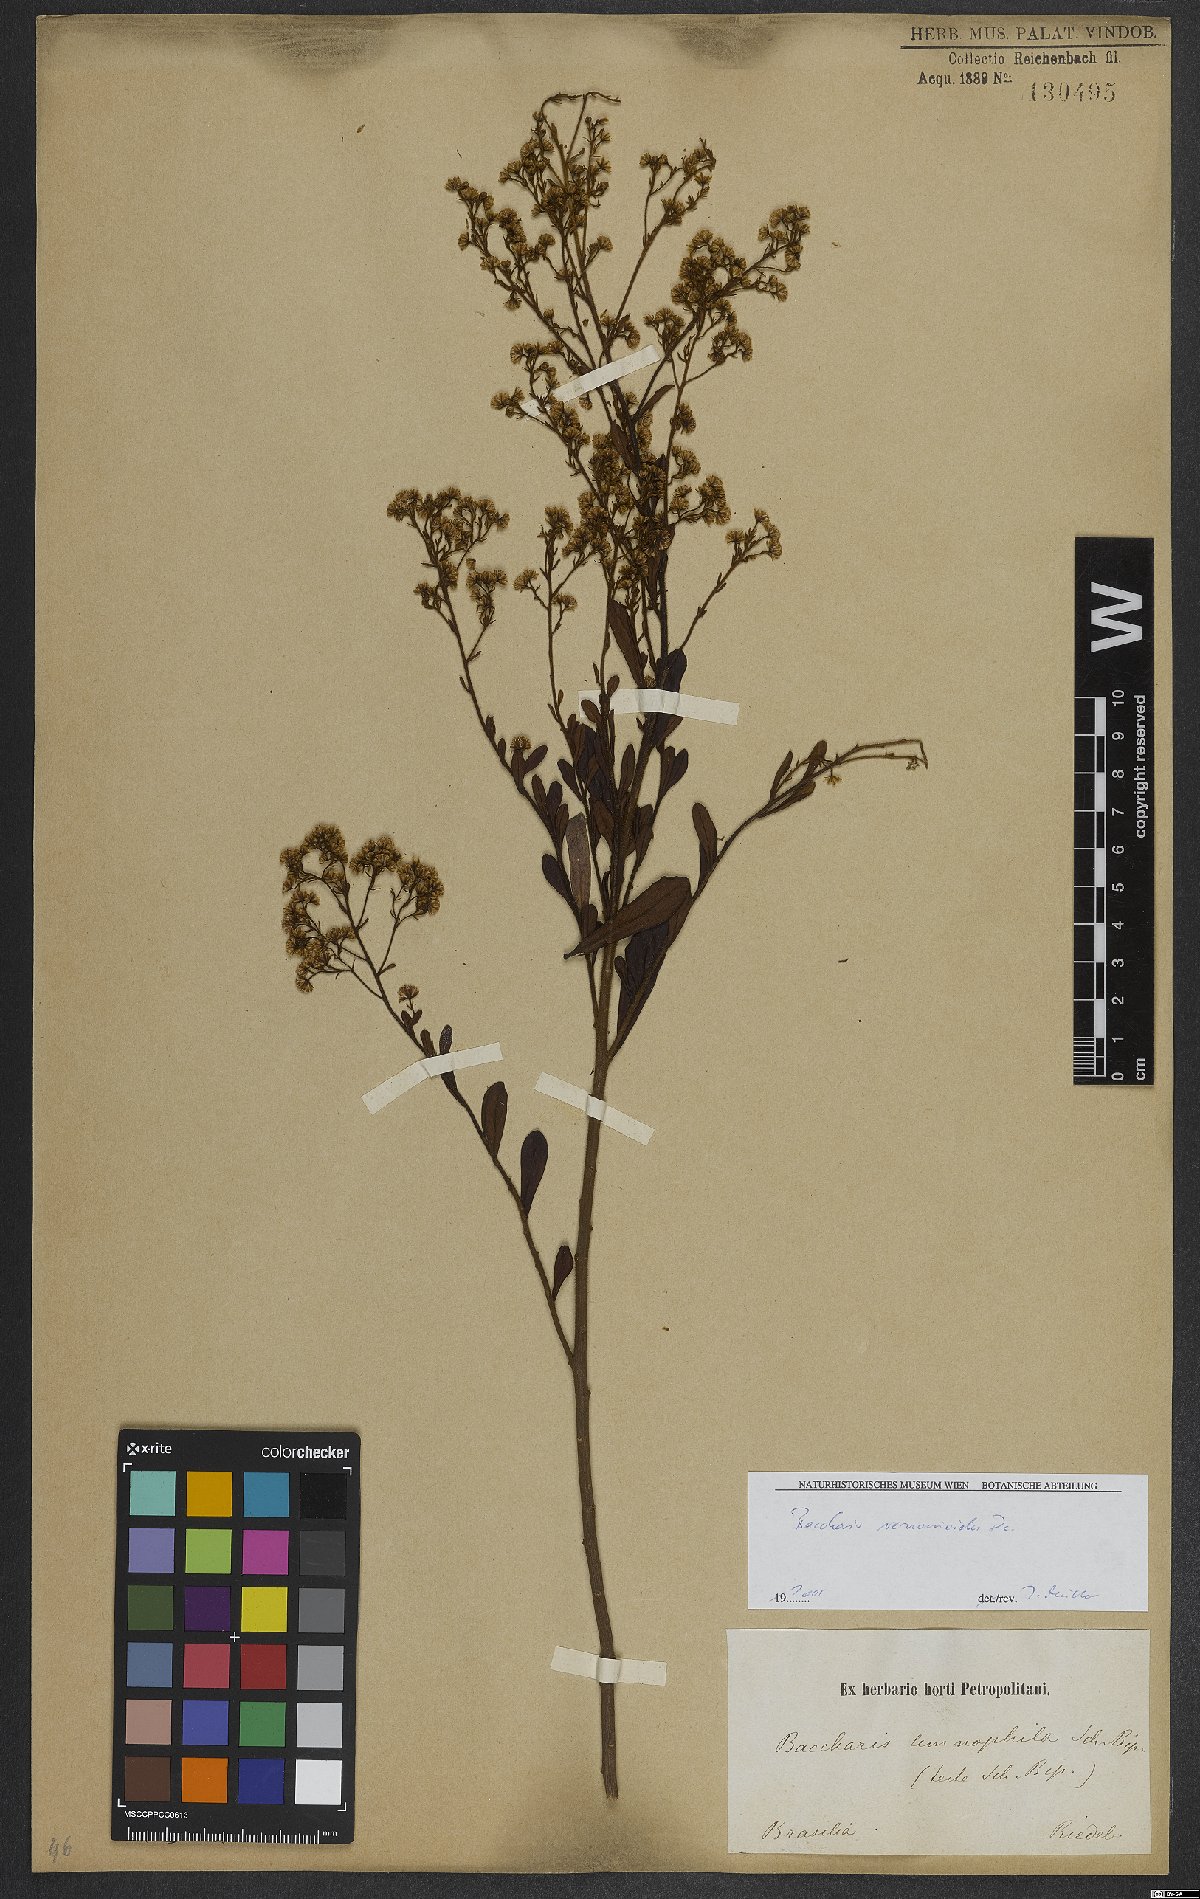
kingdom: Plantae
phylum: Tracheophyta
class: Magnoliopsida
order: Asterales
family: Asteraceae
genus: Baccharis
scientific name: Baccharis rufidula
